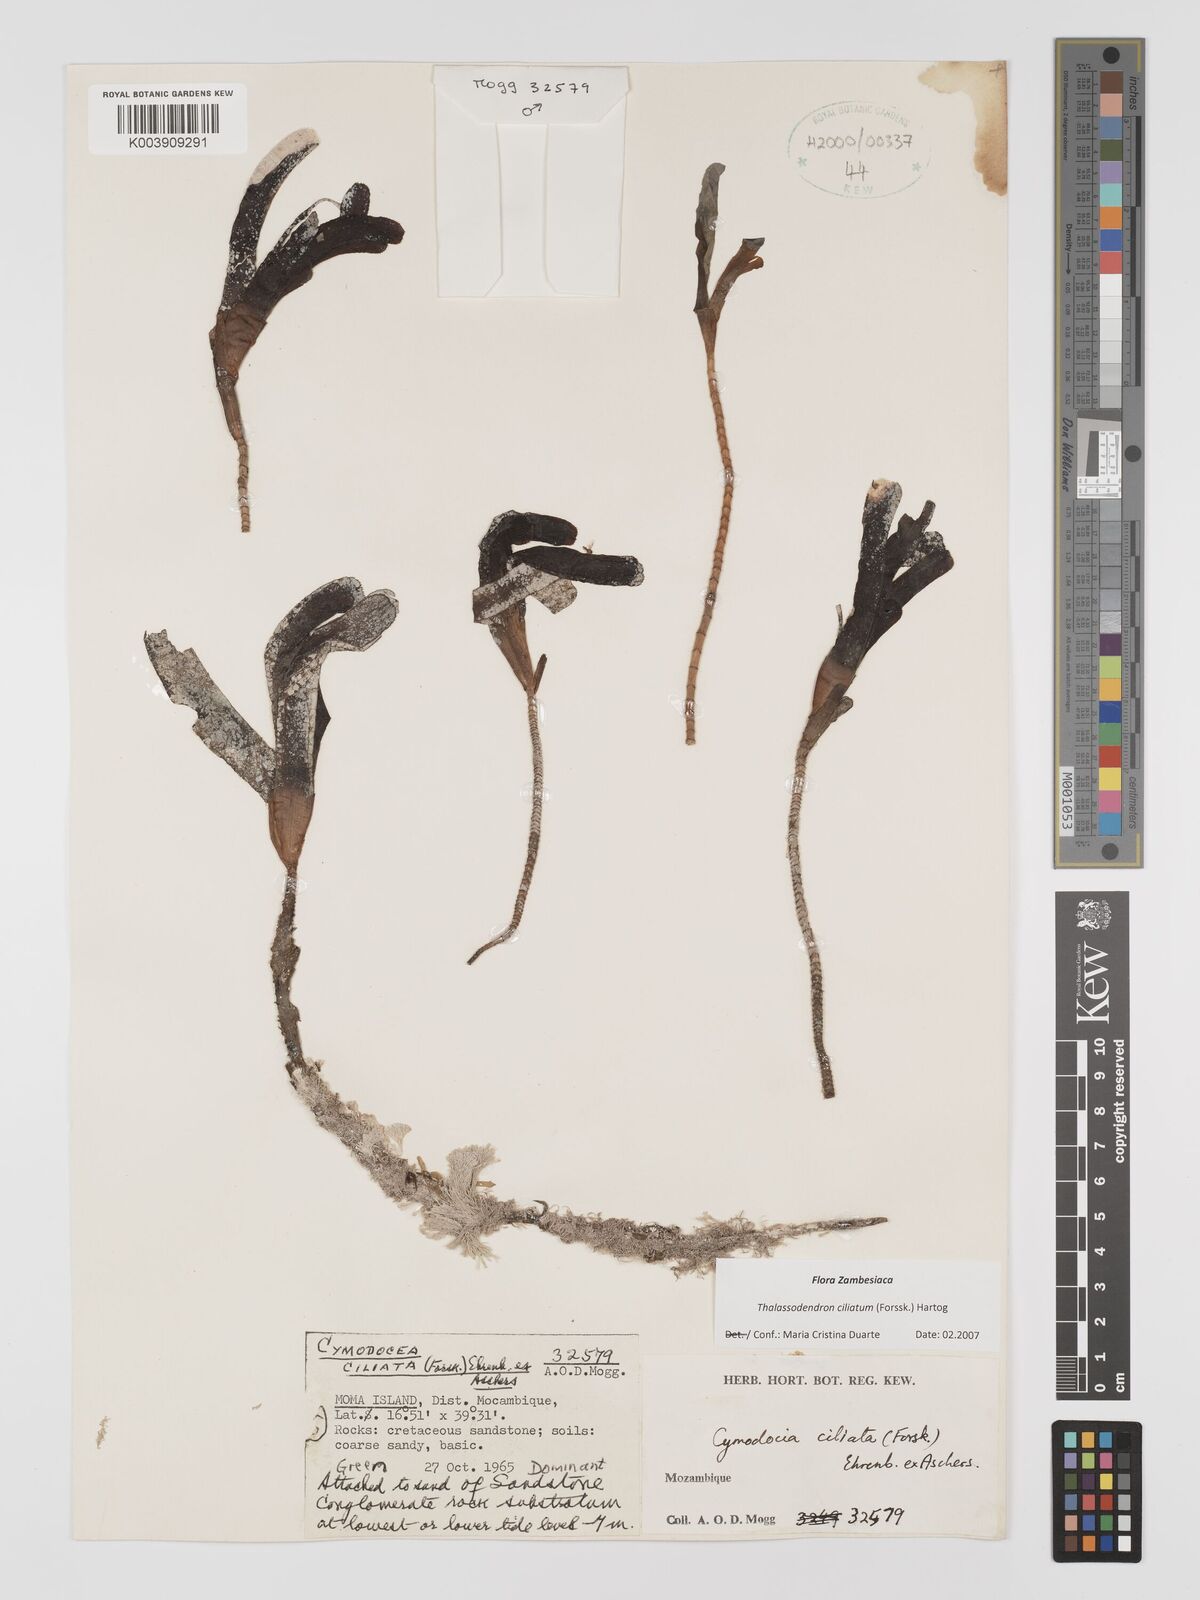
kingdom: Plantae
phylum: Tracheophyta
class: Liliopsida
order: Alismatales
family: Cymodoceaceae
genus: Thalassodendron
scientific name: Thalassodendron ciliatum
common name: Species code: tc
